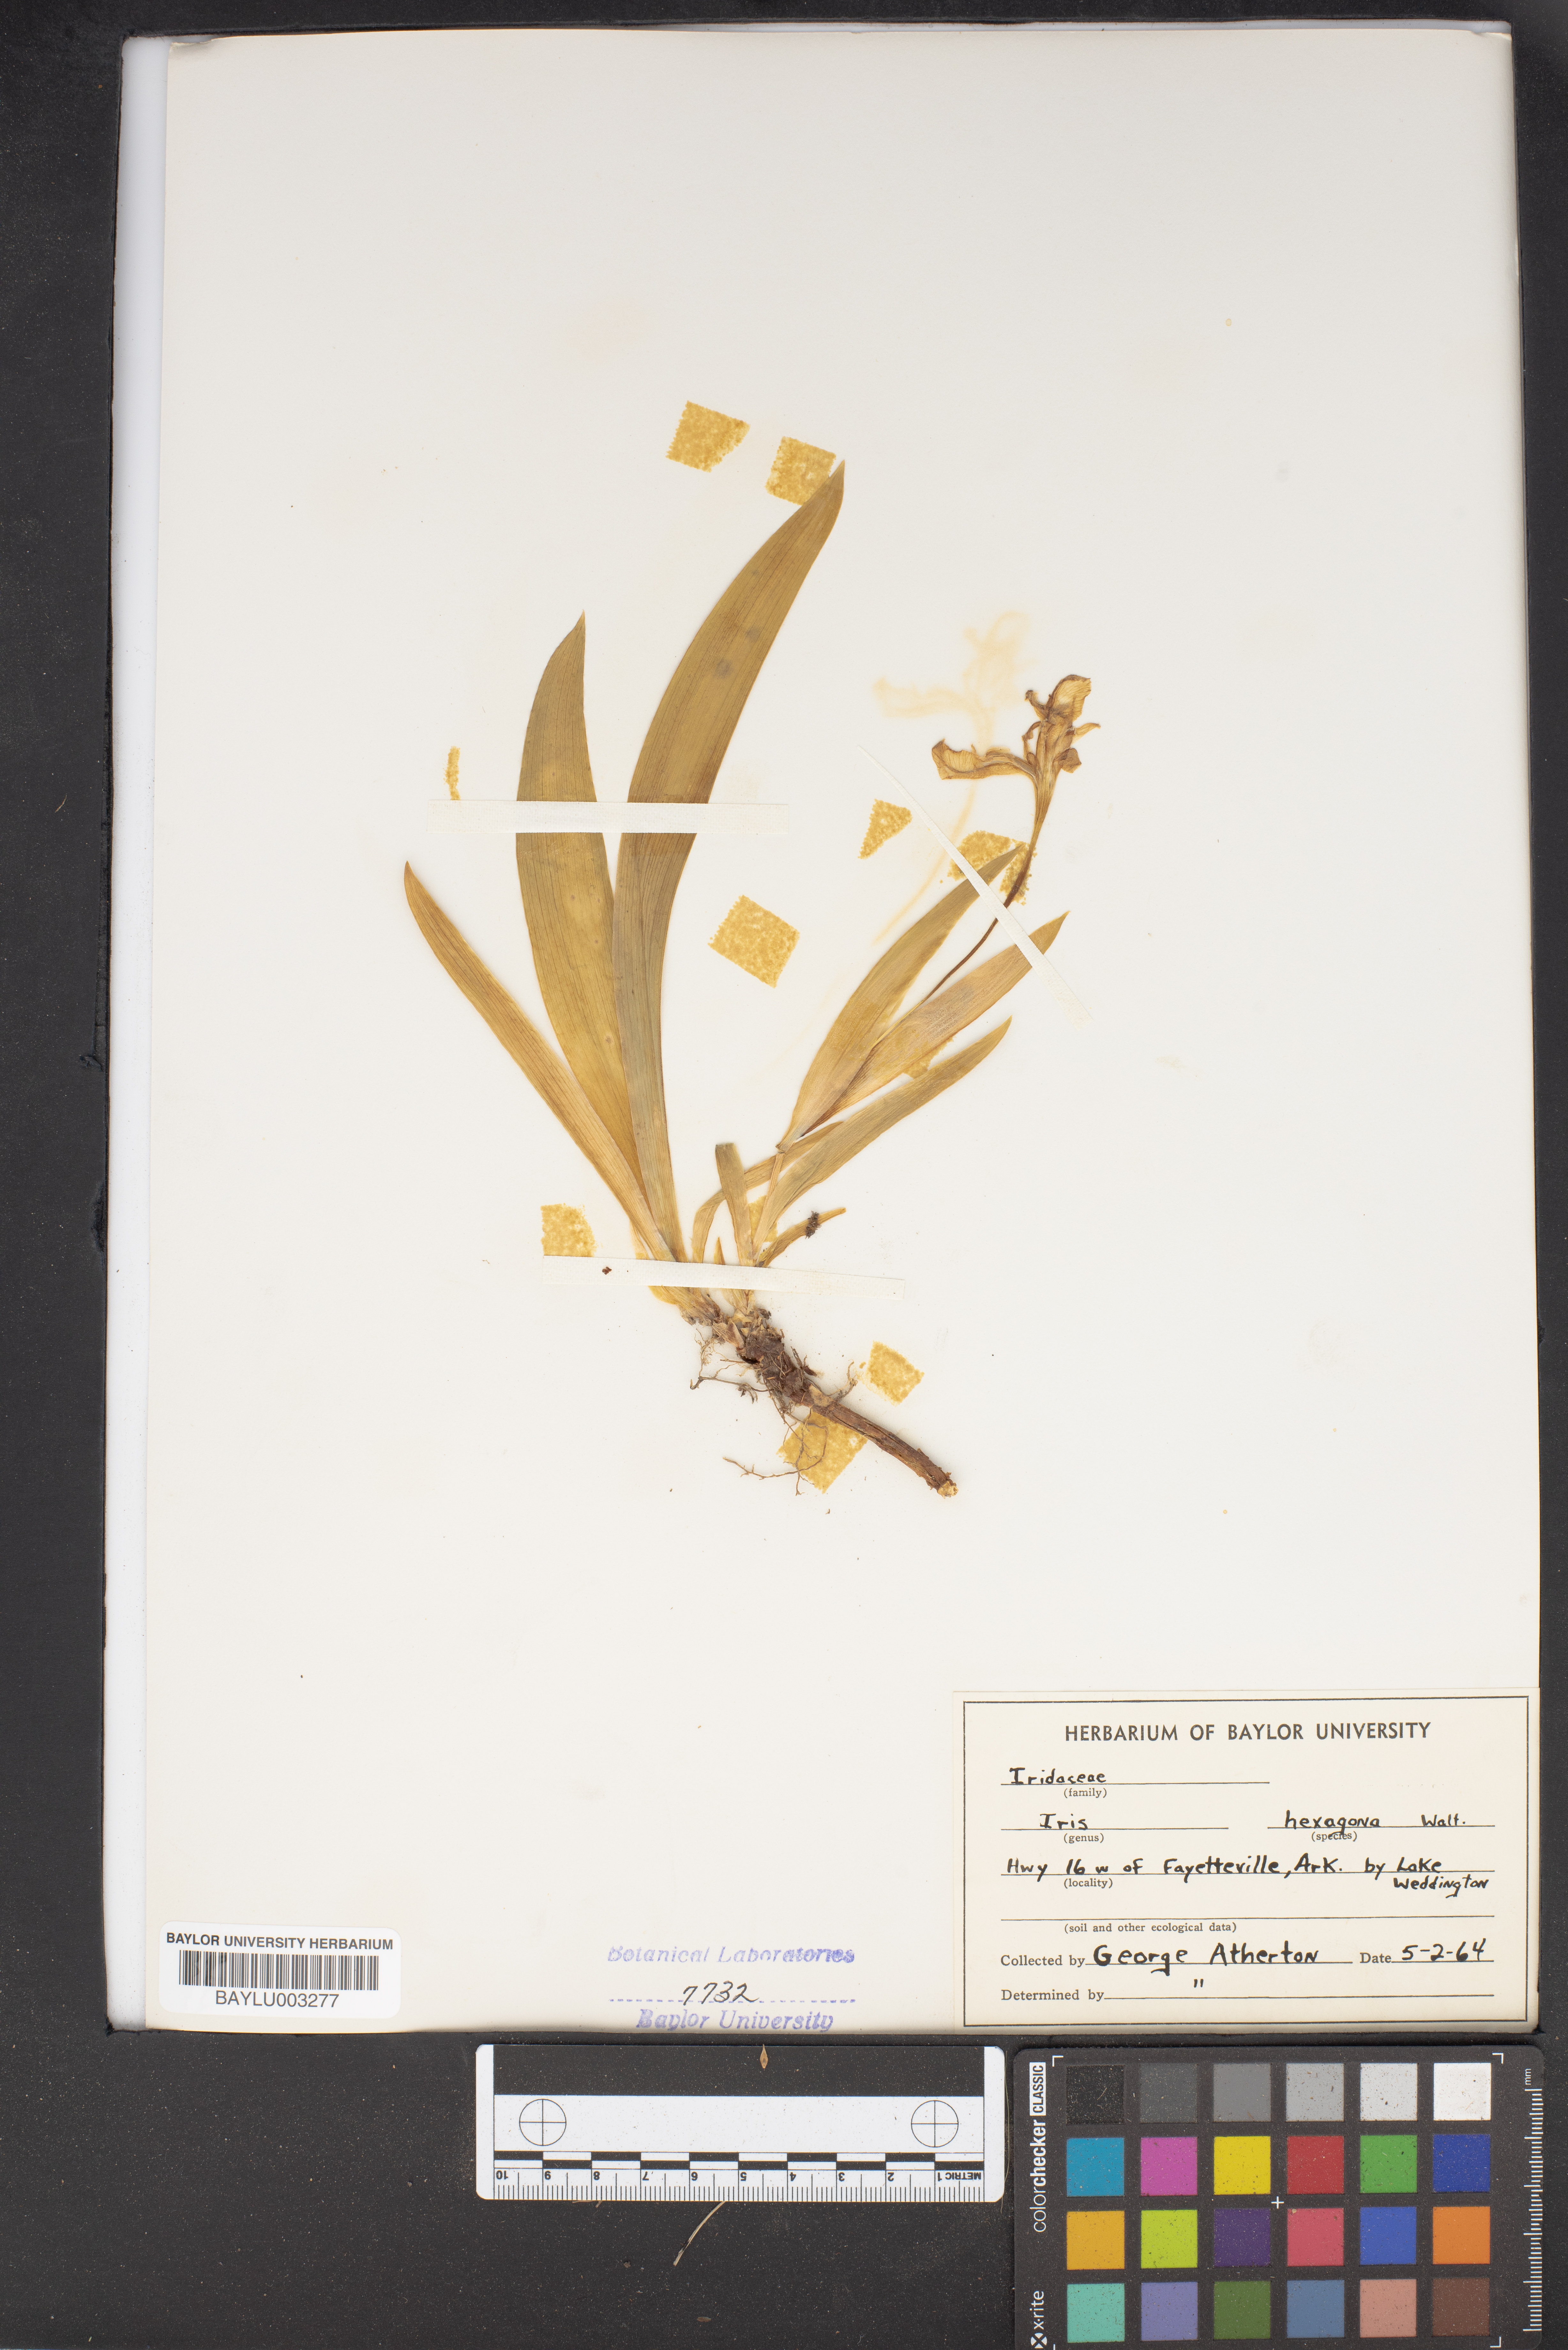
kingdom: Plantae
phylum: Tracheophyta
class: Liliopsida
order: Asparagales
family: Iridaceae
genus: Iris
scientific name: Iris hexagona
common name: Carolina iris
